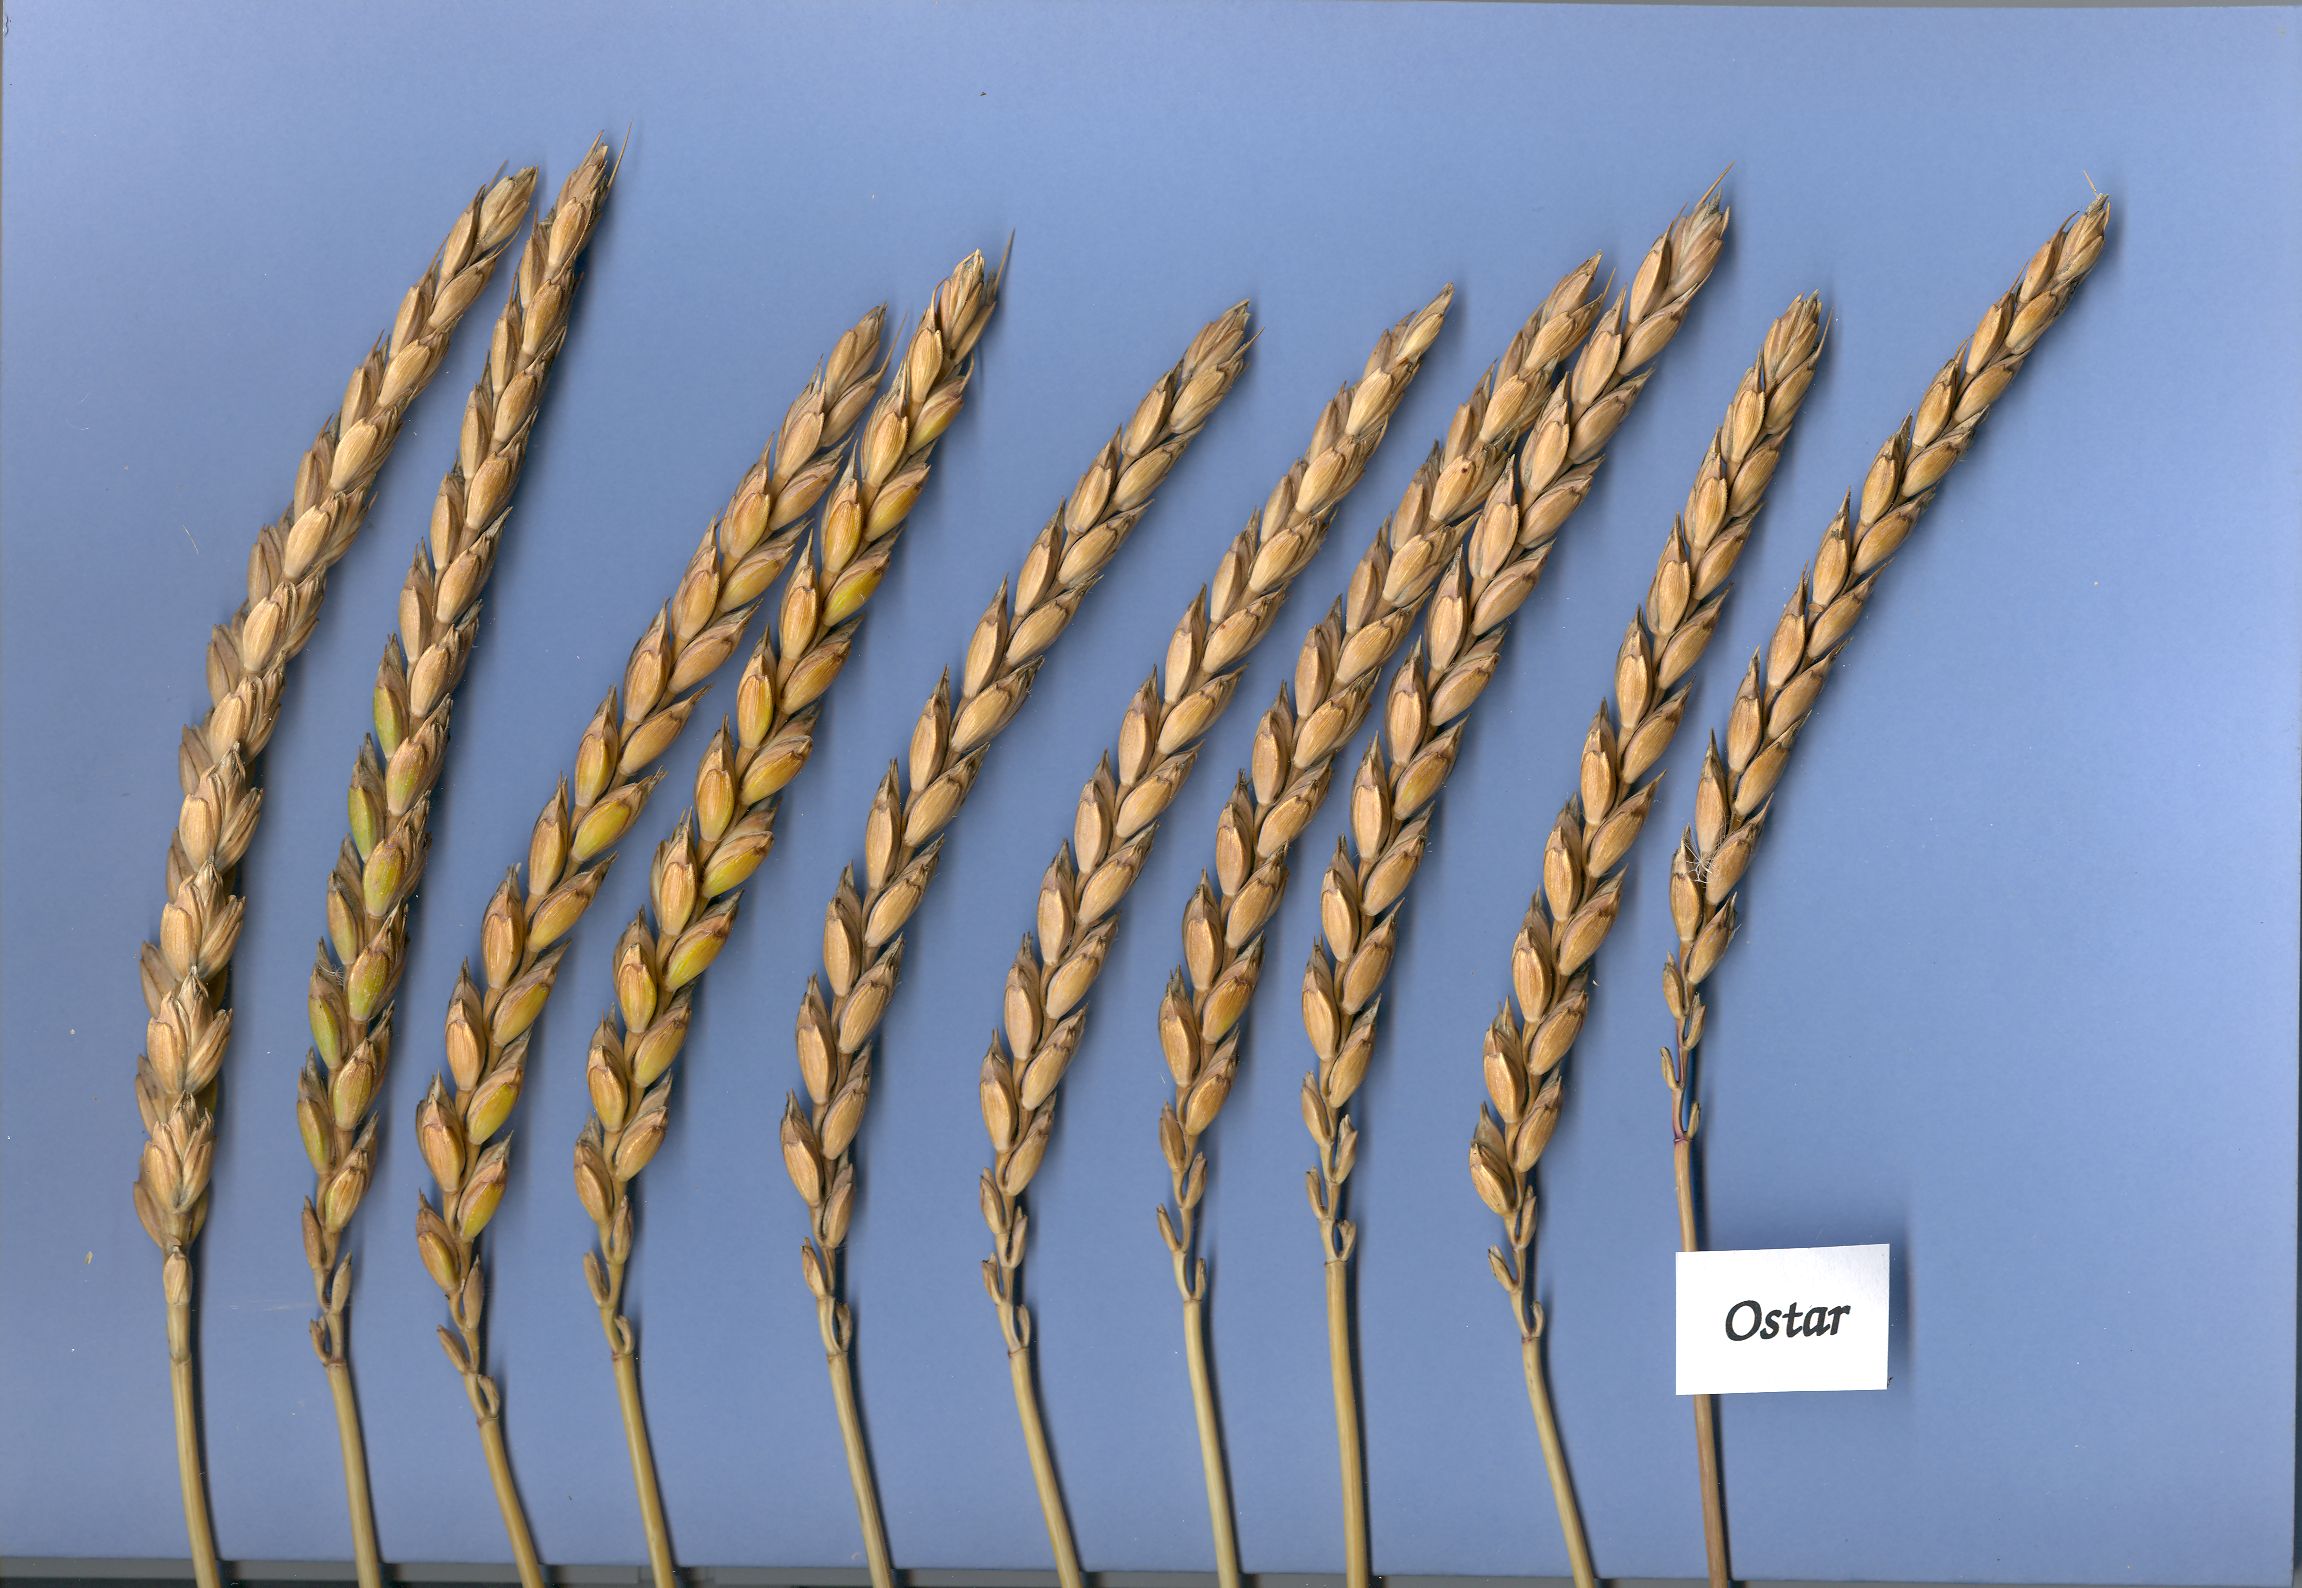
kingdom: Plantae
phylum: Tracheophyta
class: Liliopsida
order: Poales
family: Poaceae
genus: Triticum
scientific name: Triticum aestivum
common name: Common wheat
